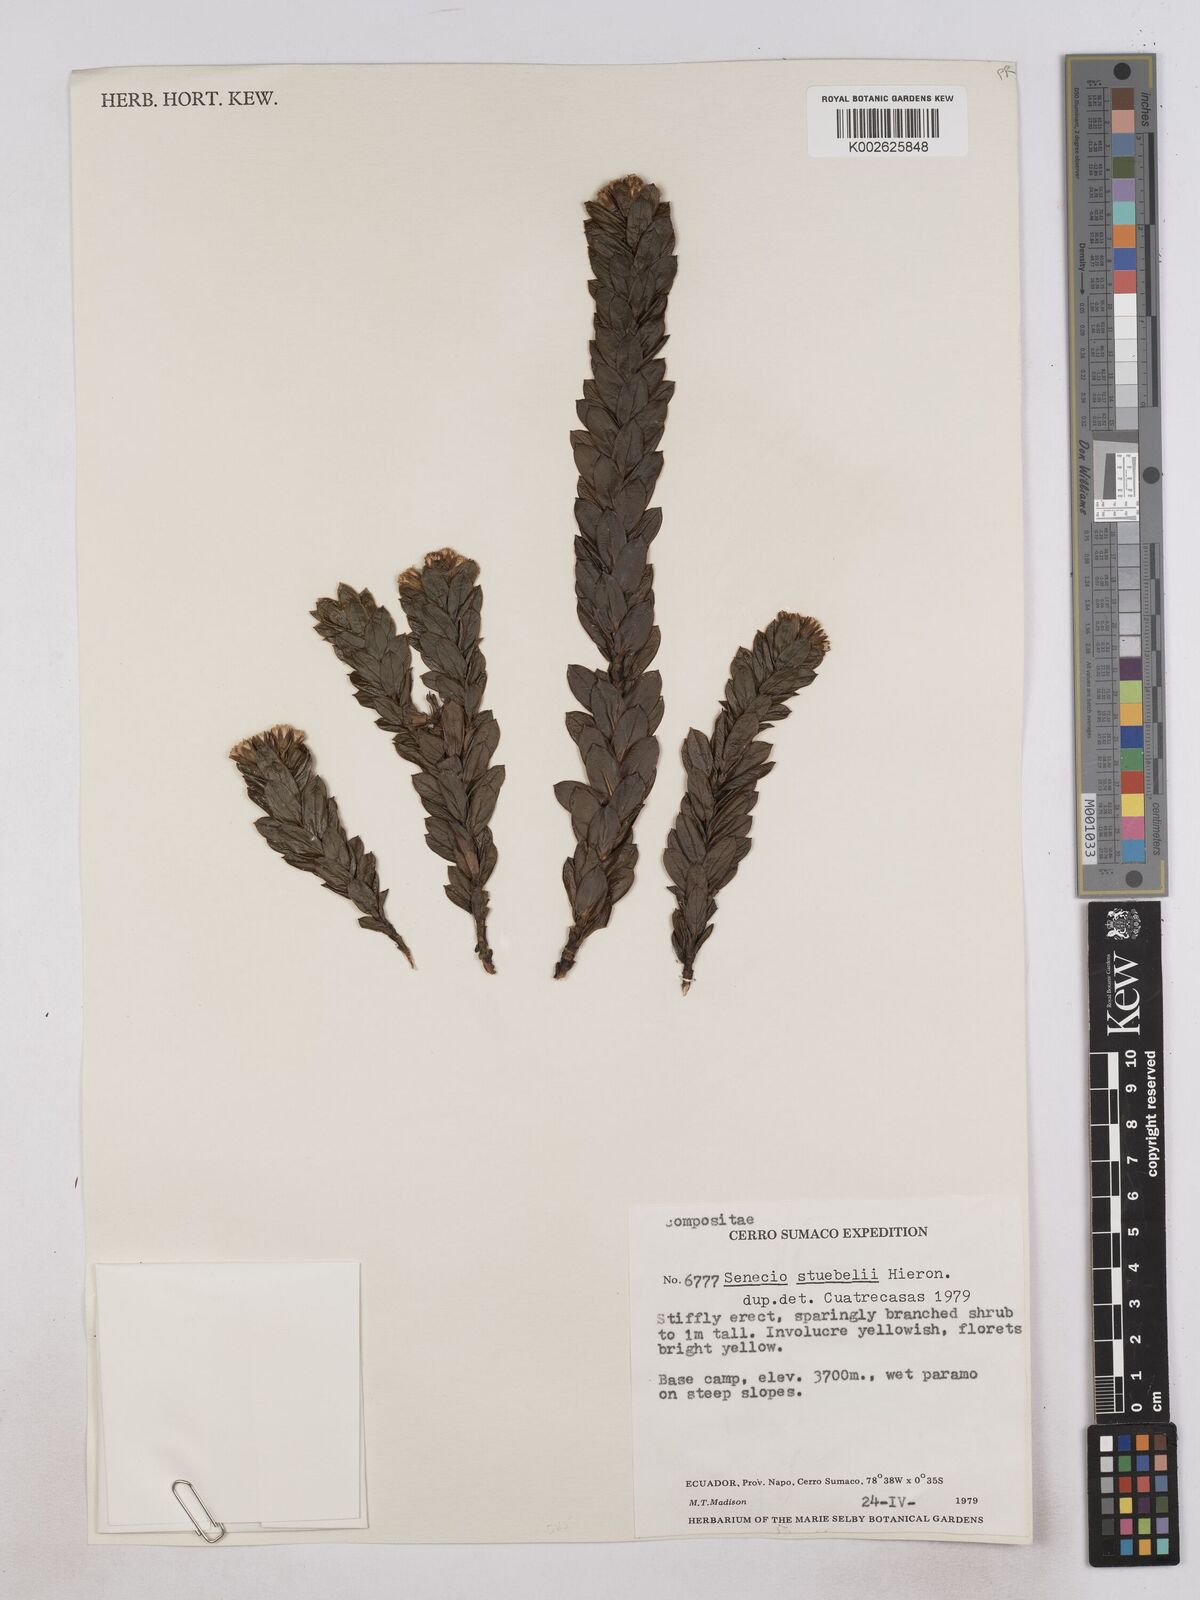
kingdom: Plantae
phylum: Tracheophyta
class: Magnoliopsida
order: Asterales
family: Asteraceae
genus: Monticalia
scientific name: Monticalia stuebelii
